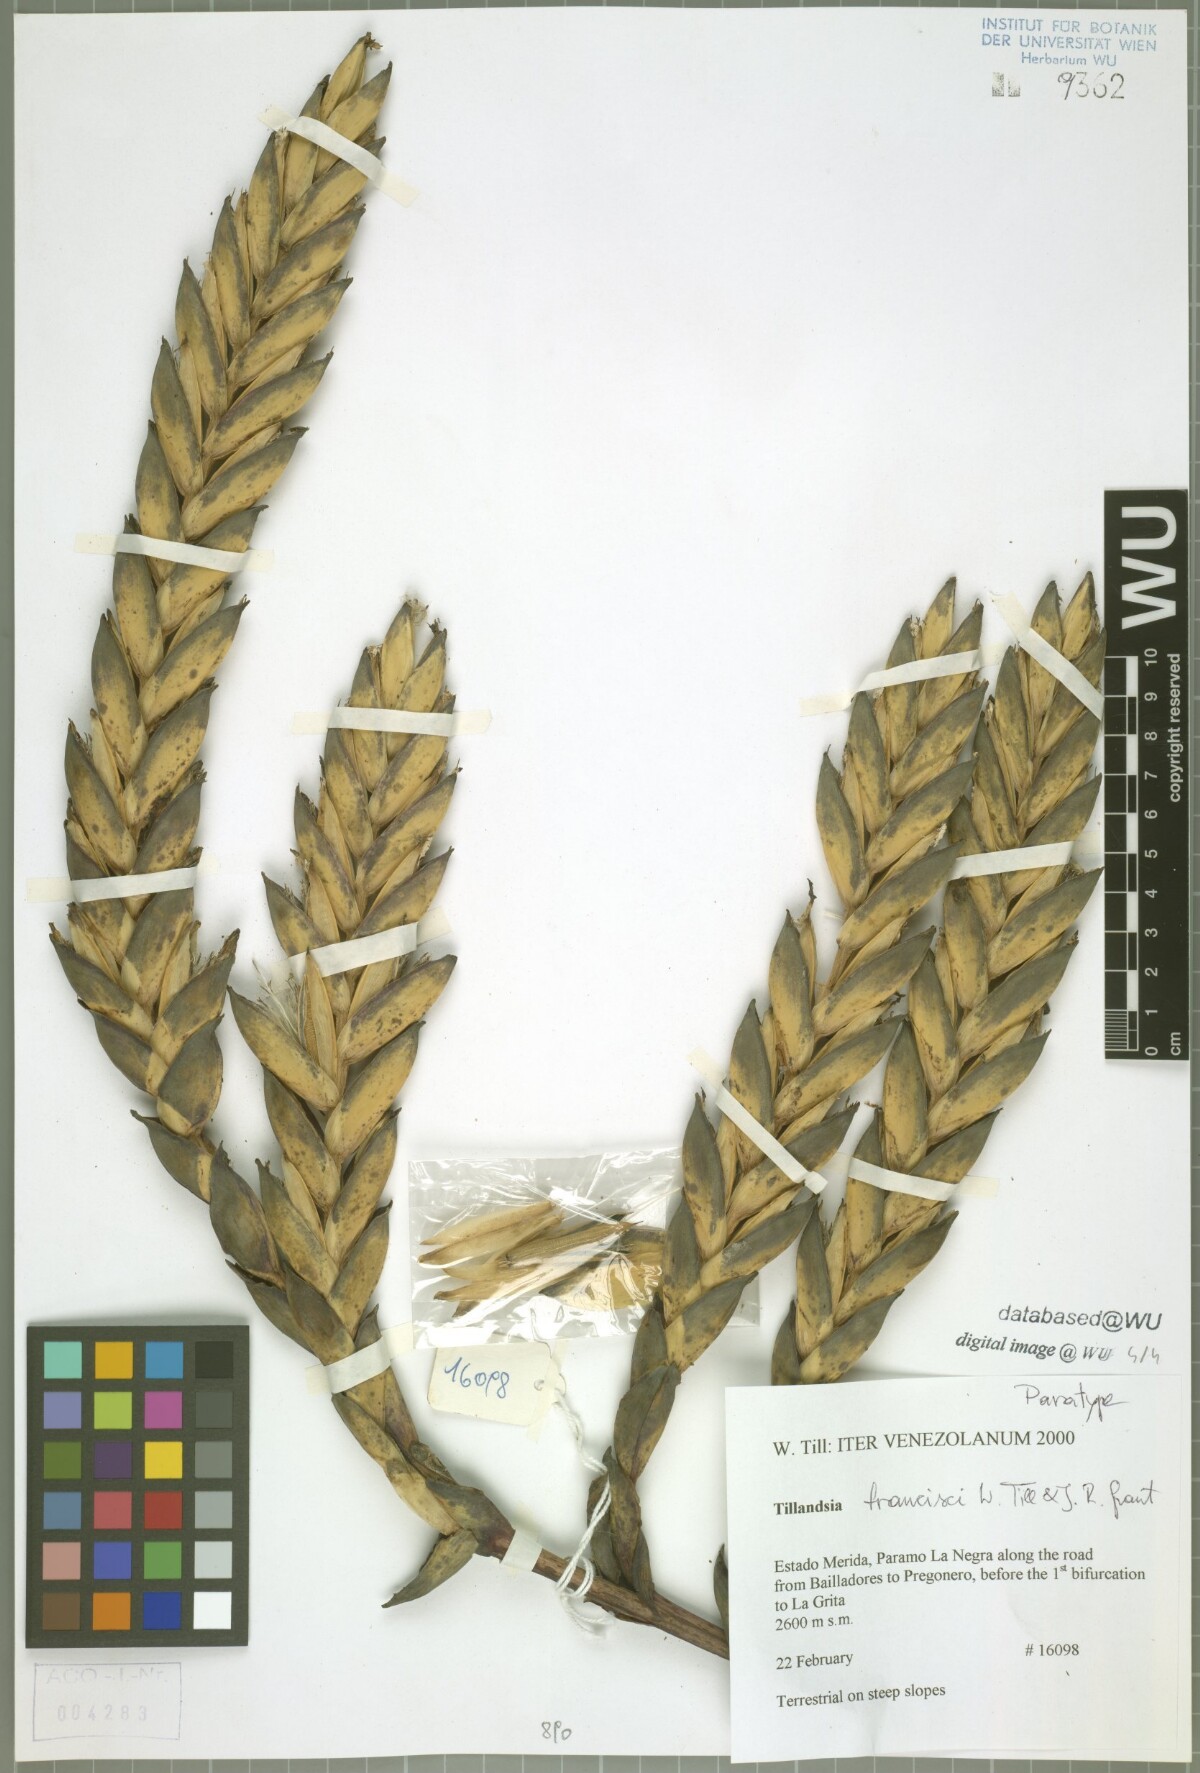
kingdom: Plantae
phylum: Tracheophyta
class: Liliopsida
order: Poales
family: Bromeliaceae
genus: Tillandsia
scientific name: Tillandsia francisci
